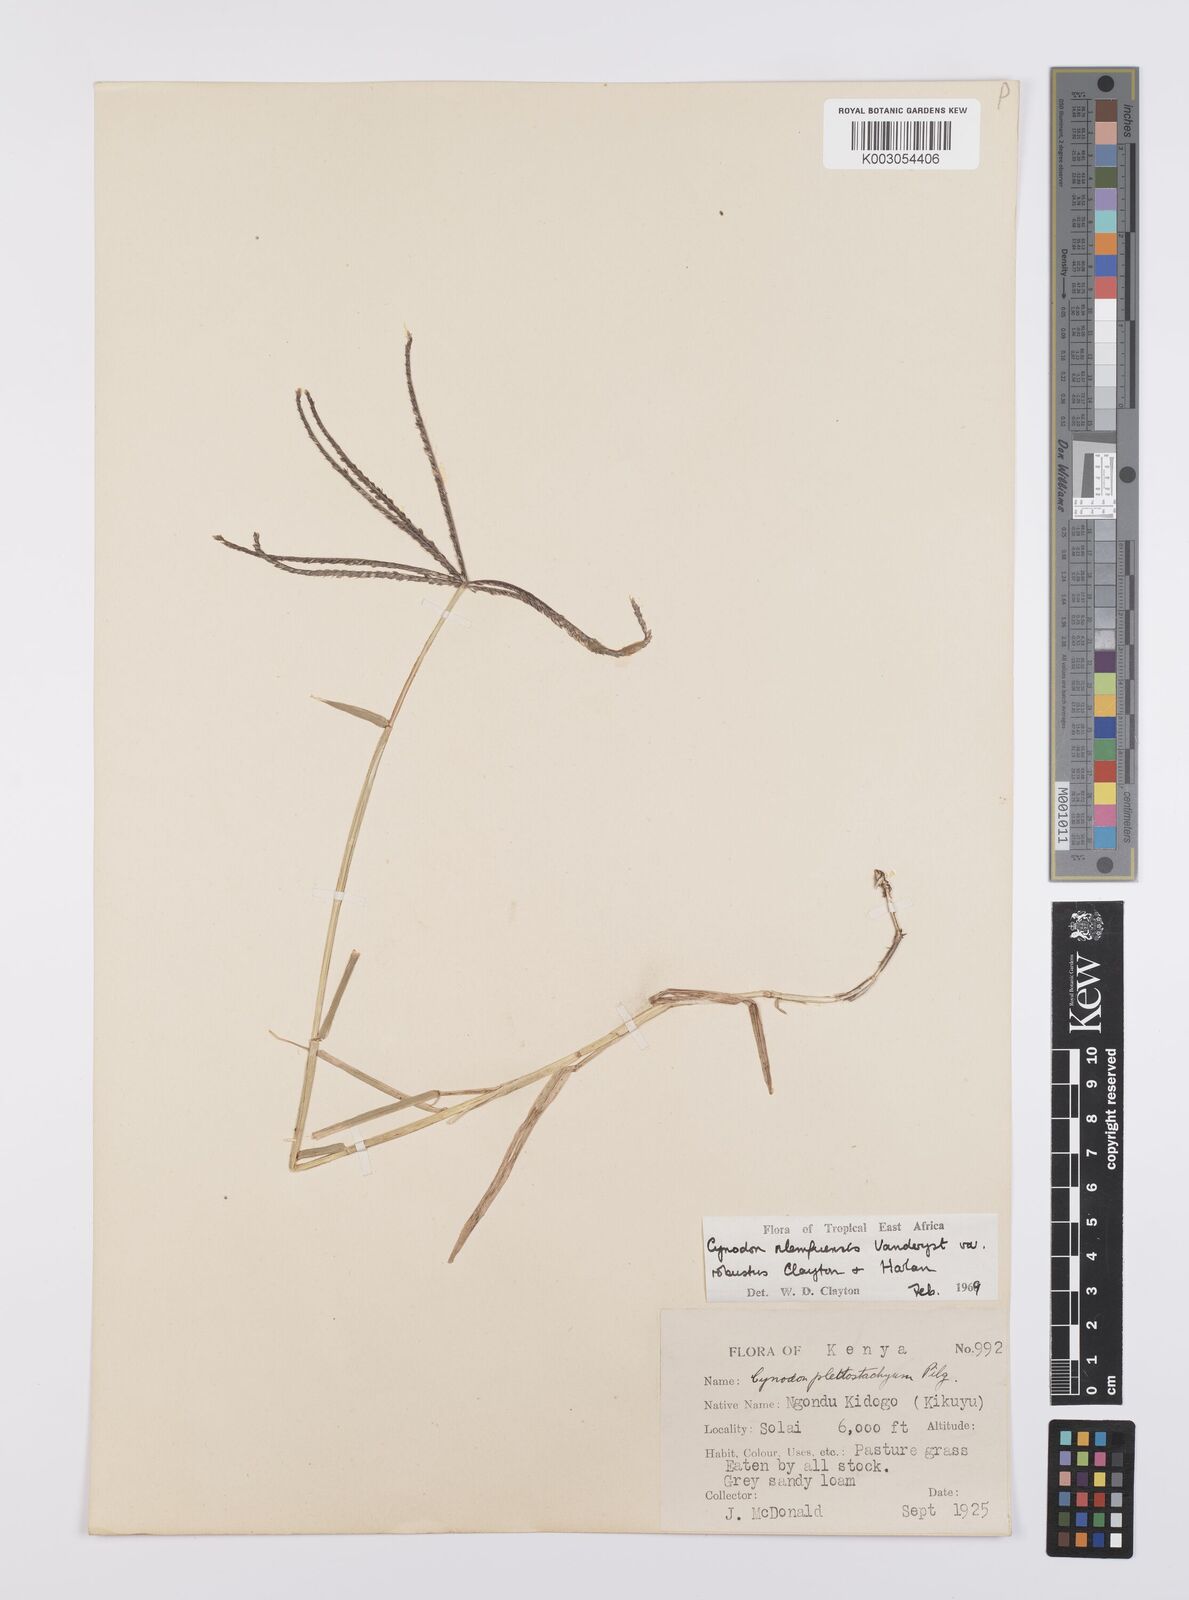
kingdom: Plantae
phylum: Tracheophyta
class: Liliopsida
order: Poales
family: Poaceae
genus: Cynodon
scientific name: Cynodon nlemfuensis
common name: African bermudagrass
